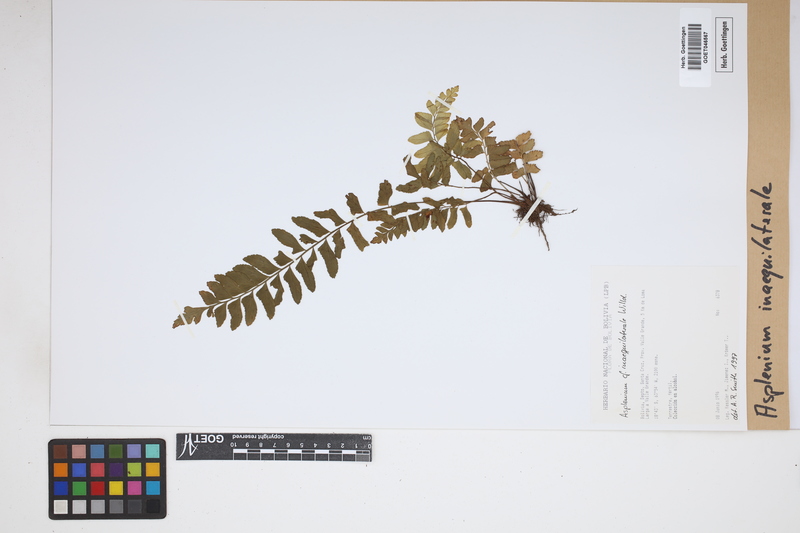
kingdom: Plantae
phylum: Tracheophyta
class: Polypodiopsida
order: Polypodiales
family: Aspleniaceae
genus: Asplenium
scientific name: Asplenium inaequilaterale
